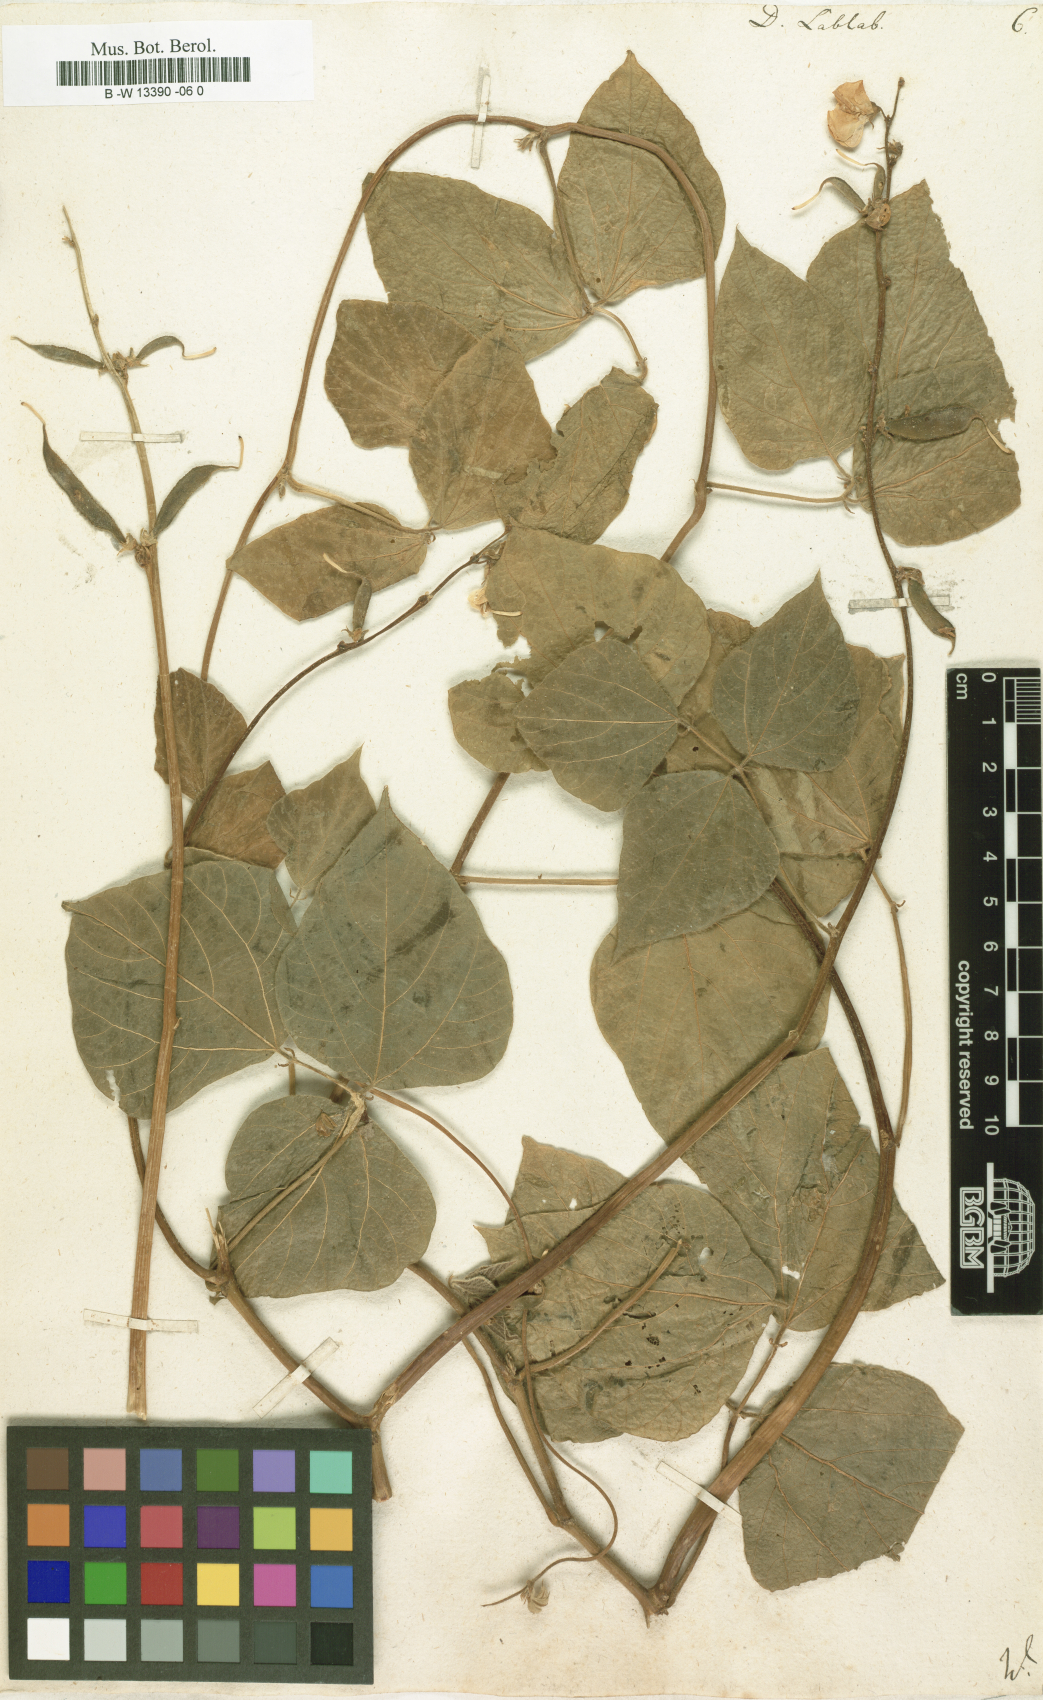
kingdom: Plantae
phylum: Tracheophyta
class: Magnoliopsida
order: Fabales
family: Fabaceae
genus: Lablab
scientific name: Lablab purpureus
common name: Lablab-bean
